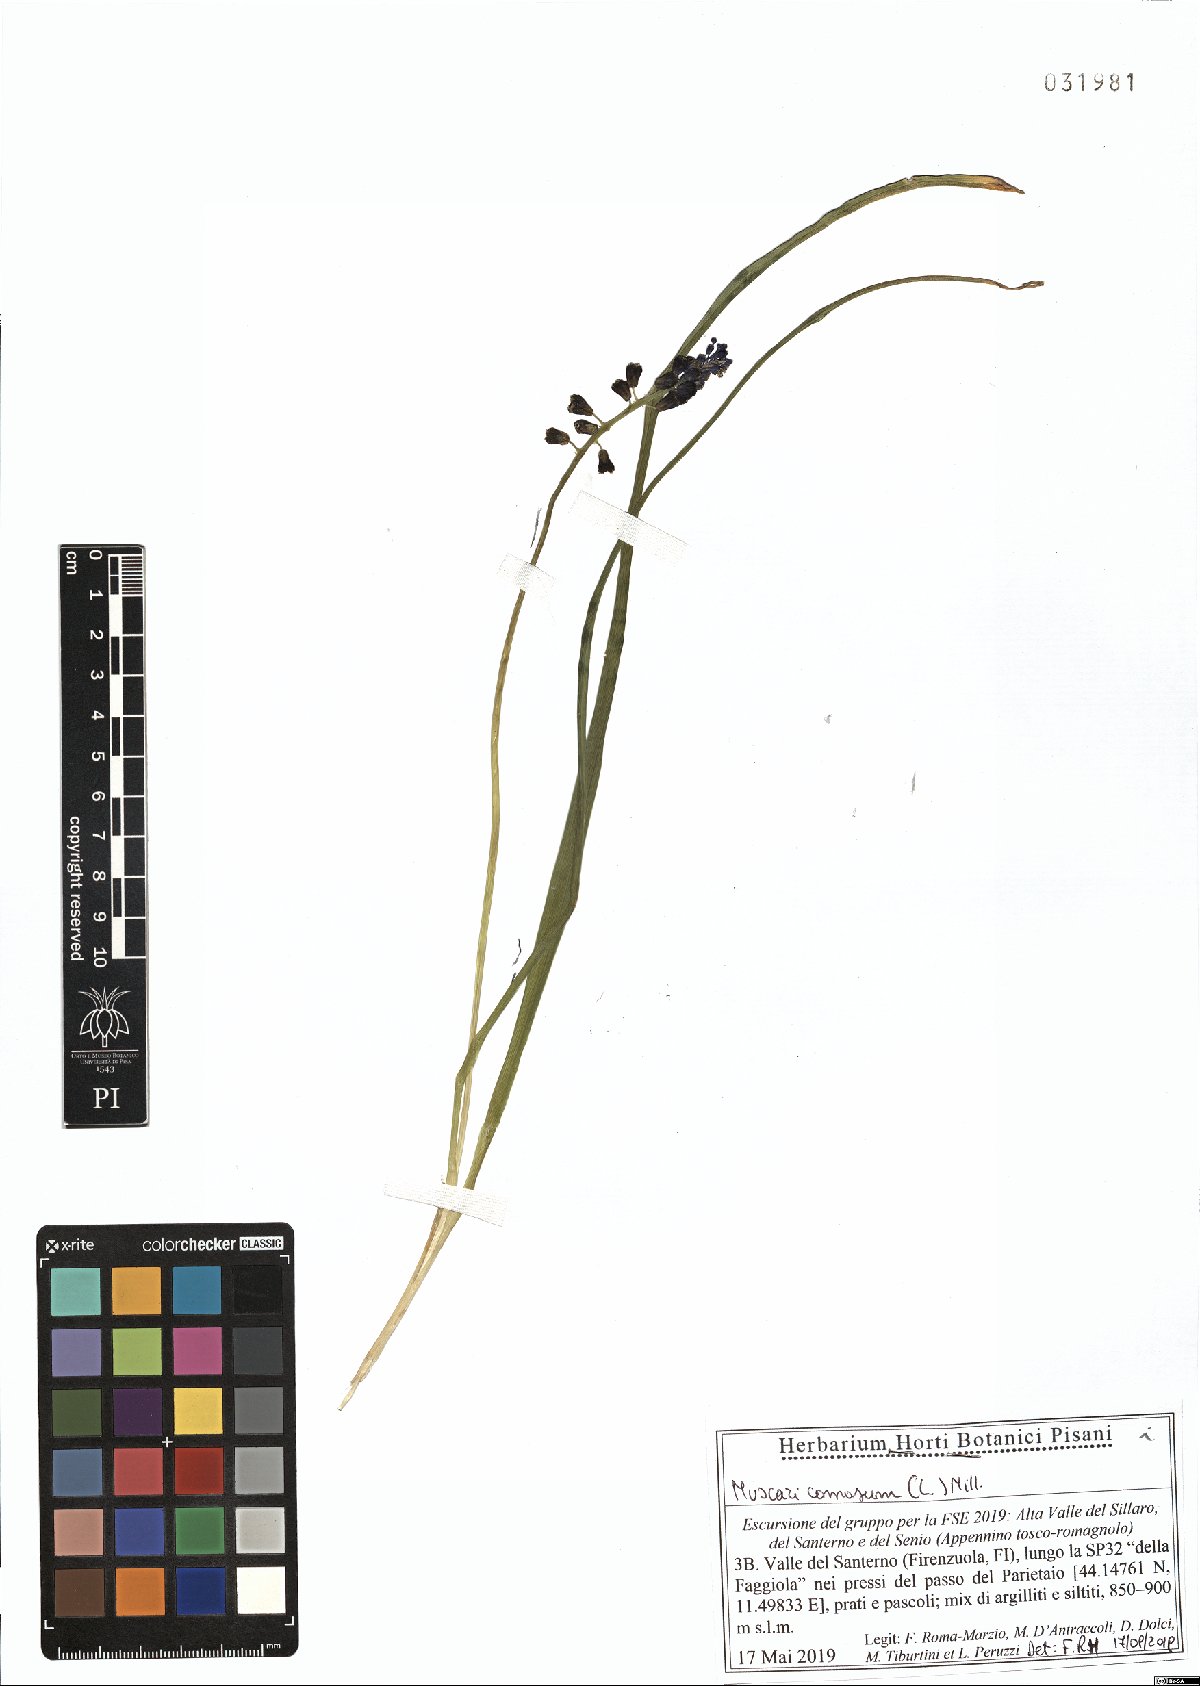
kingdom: Plantae
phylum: Tracheophyta
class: Liliopsida
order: Asparagales
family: Asparagaceae
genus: Muscari
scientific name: Muscari comosum
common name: Tassel hyacinth
